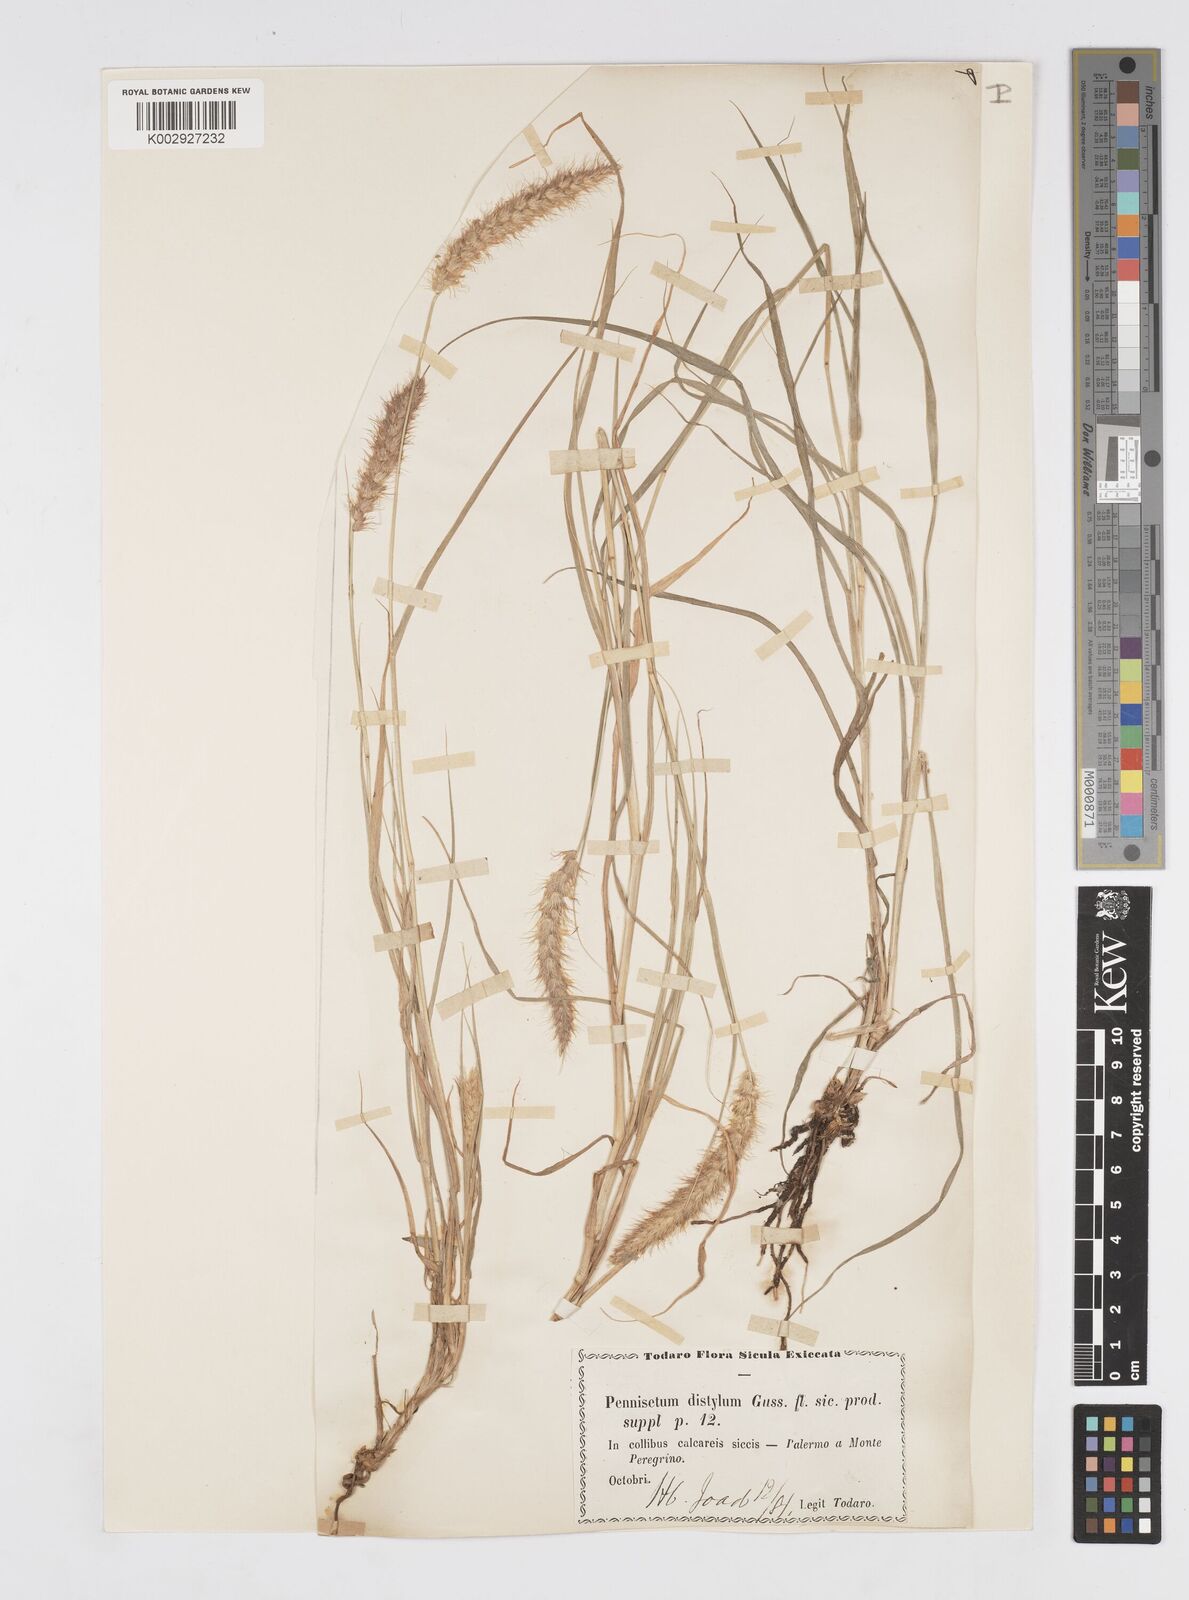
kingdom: Plantae
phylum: Tracheophyta
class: Liliopsida
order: Poales
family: Poaceae
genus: Cenchrus
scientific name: Cenchrus ciliaris
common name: Buffelgrass
